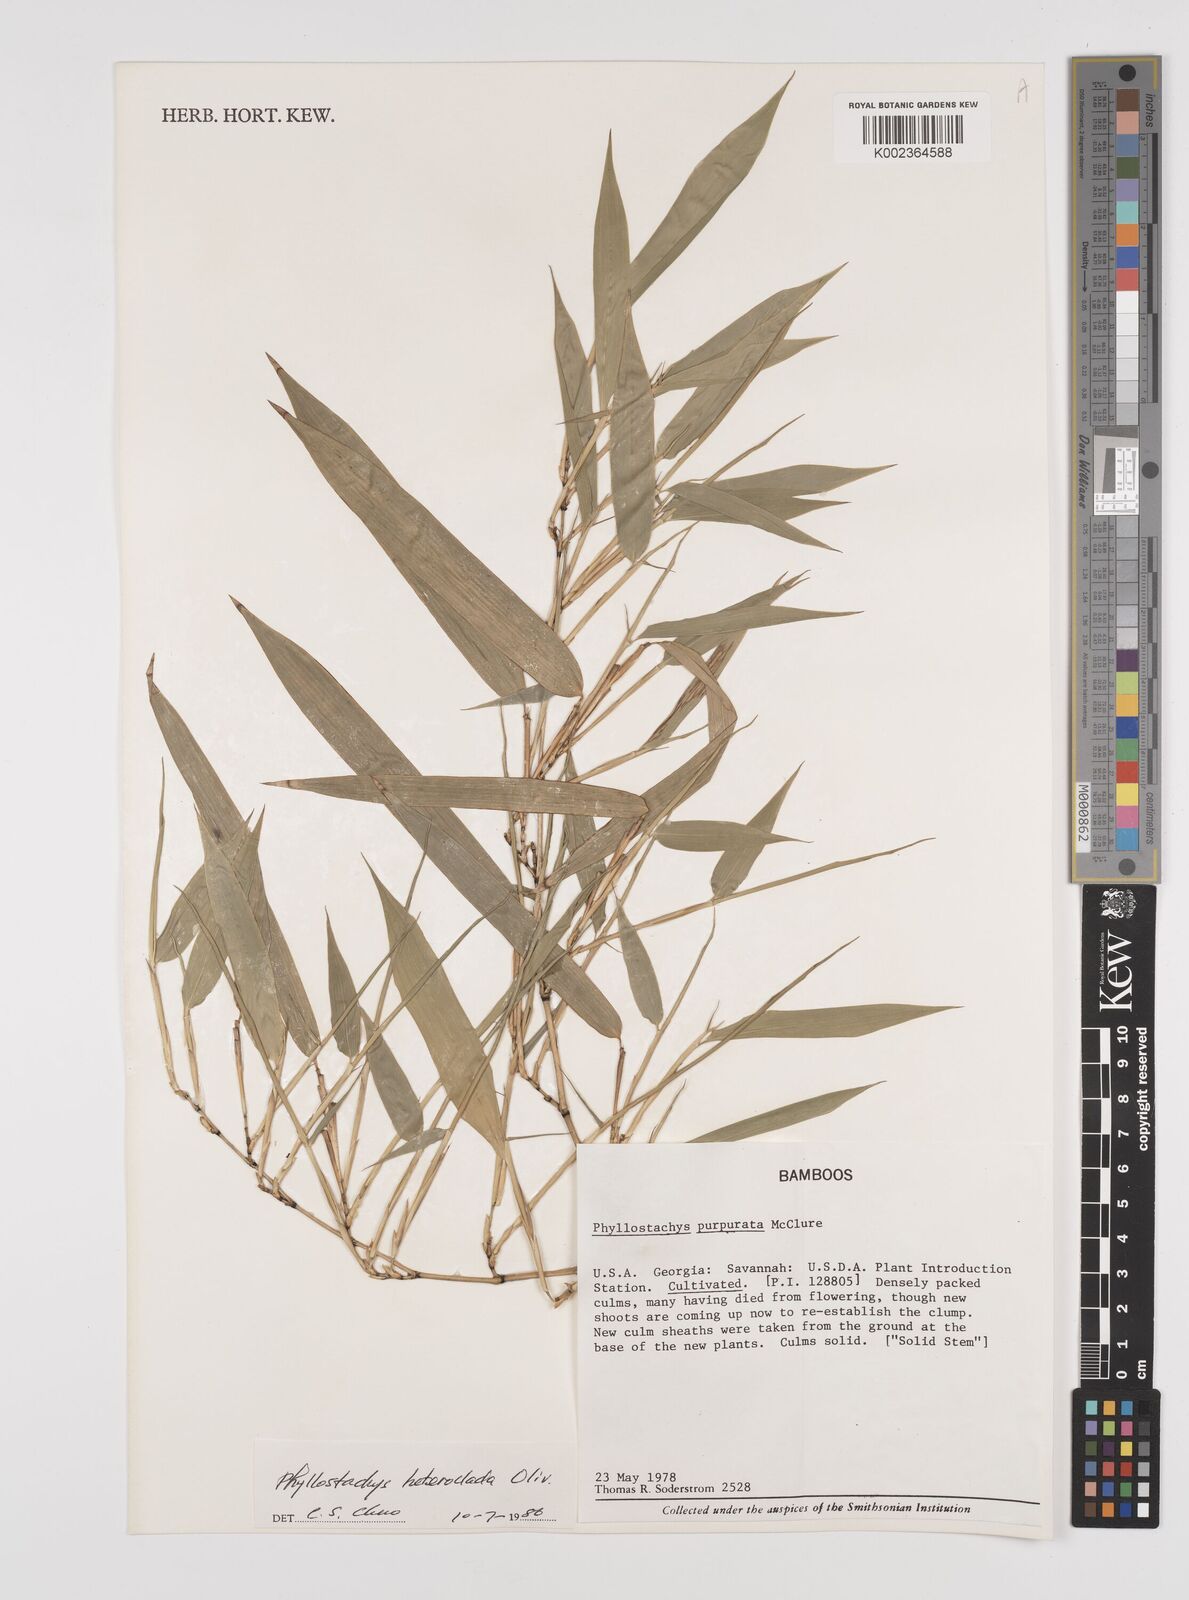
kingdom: Plantae
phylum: Tracheophyta
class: Liliopsida
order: Poales
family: Poaceae
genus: Phyllostachys
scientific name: Phyllostachys heteroclada
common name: Fishscale bamboo
